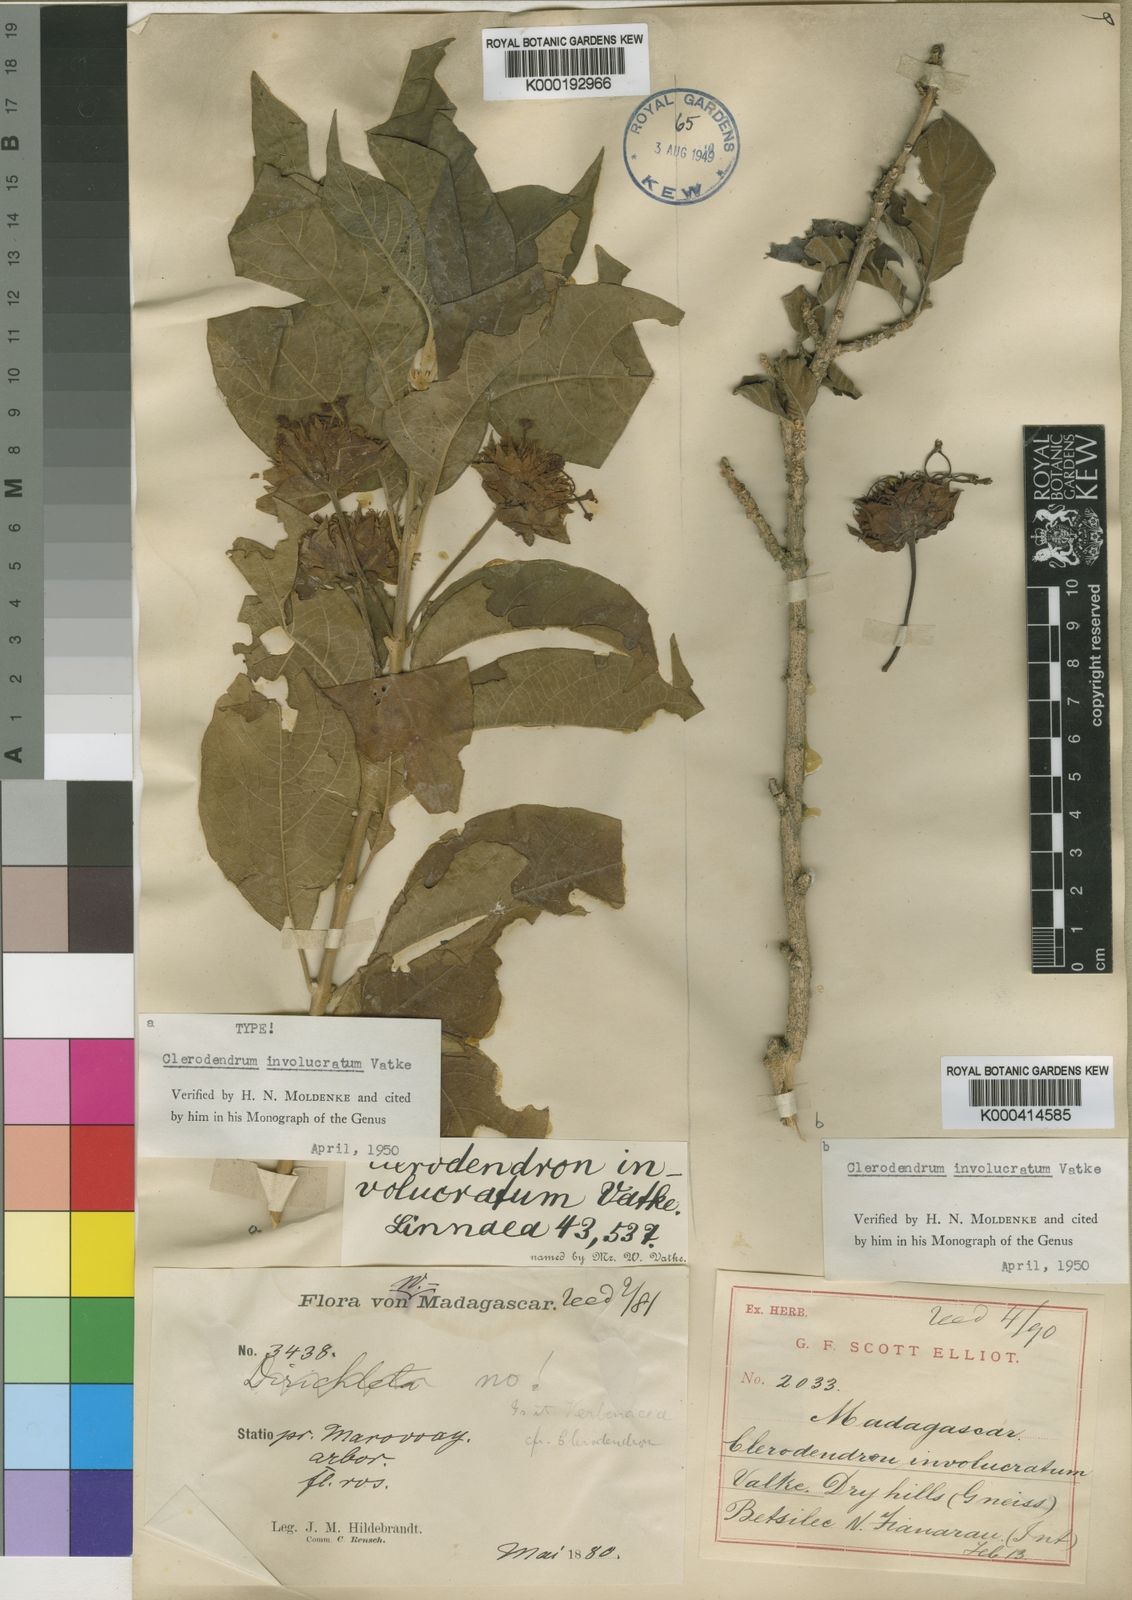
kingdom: Plantae
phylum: Tracheophyta
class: Magnoliopsida
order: Lamiales
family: Lamiaceae
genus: Clerodendrum
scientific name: Clerodendrum involucratum
